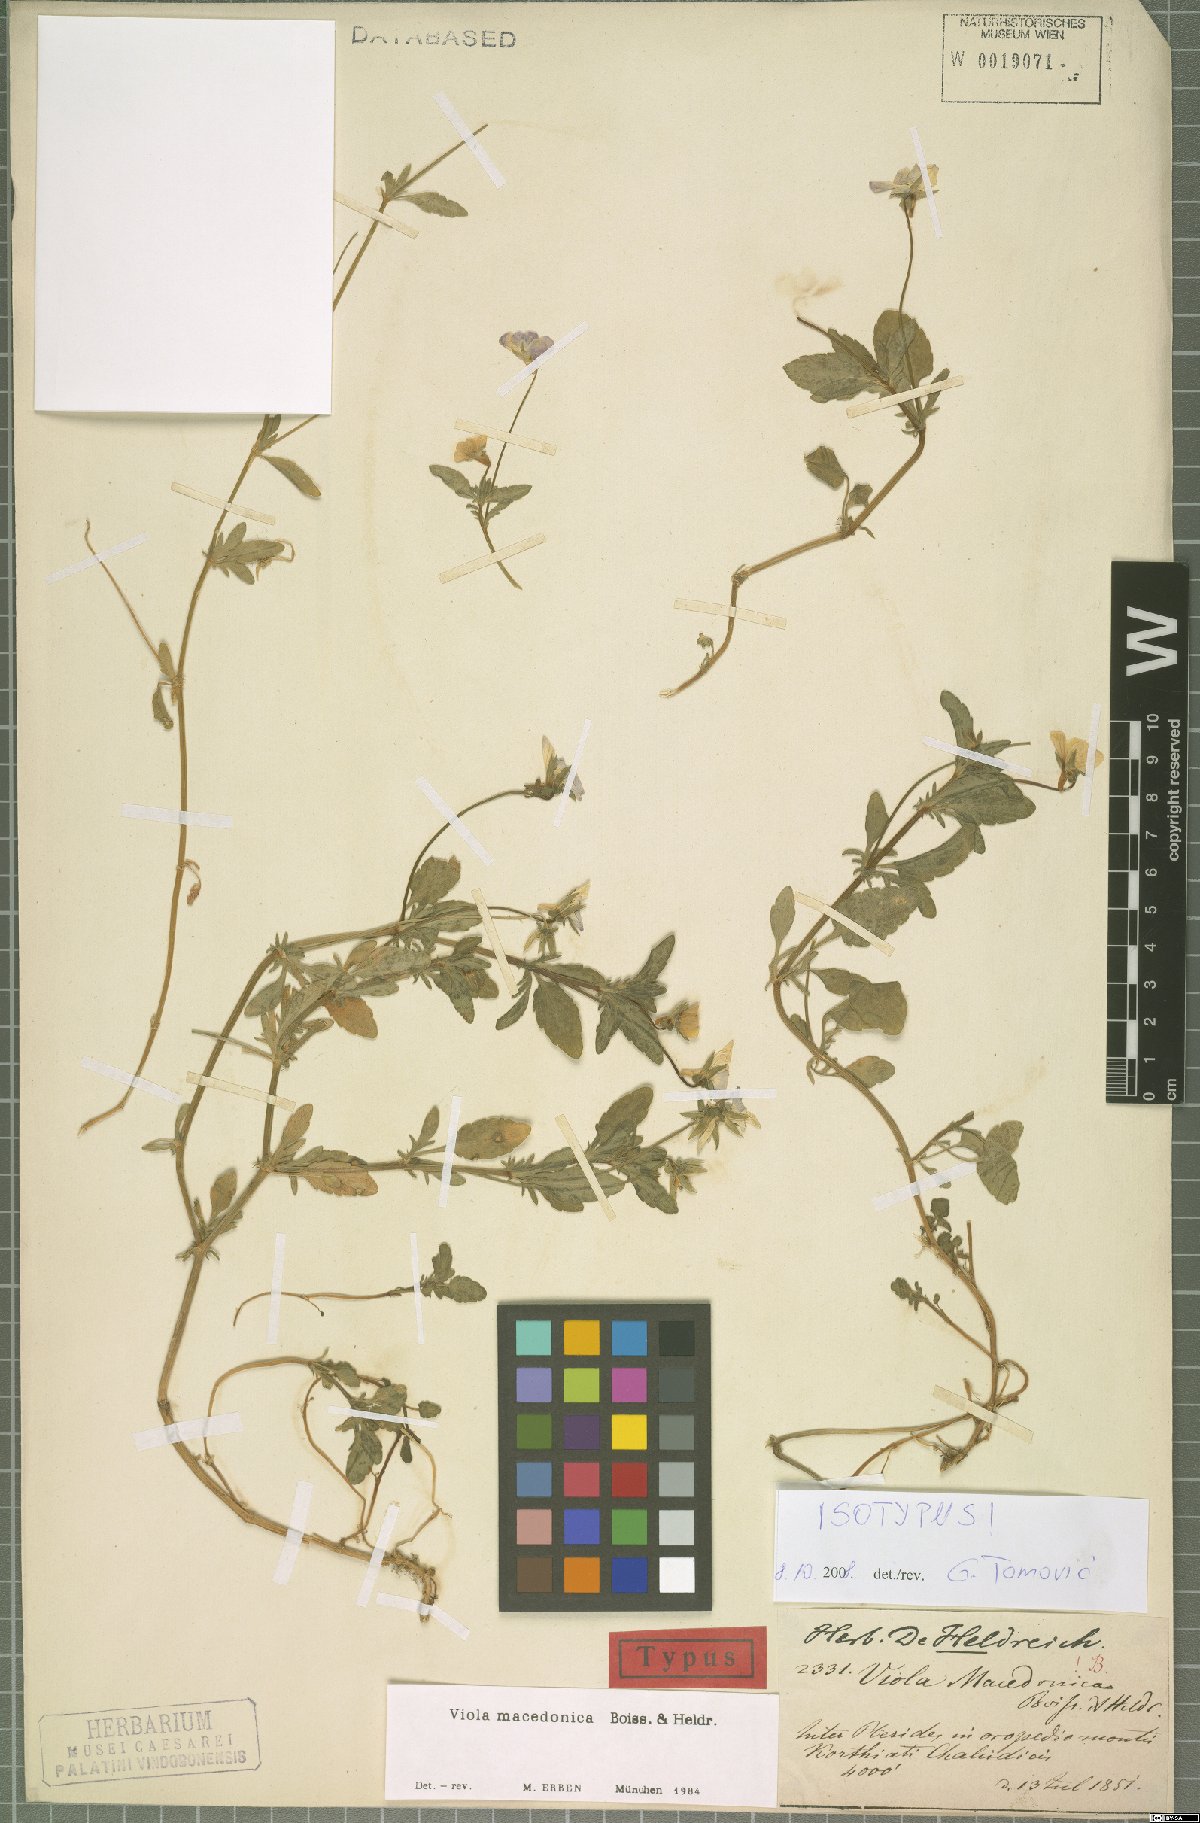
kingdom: Plantae
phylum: Tracheophyta
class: Magnoliopsida
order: Malpighiales
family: Violaceae
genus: Viola
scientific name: Viola tricolor
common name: Pansy
